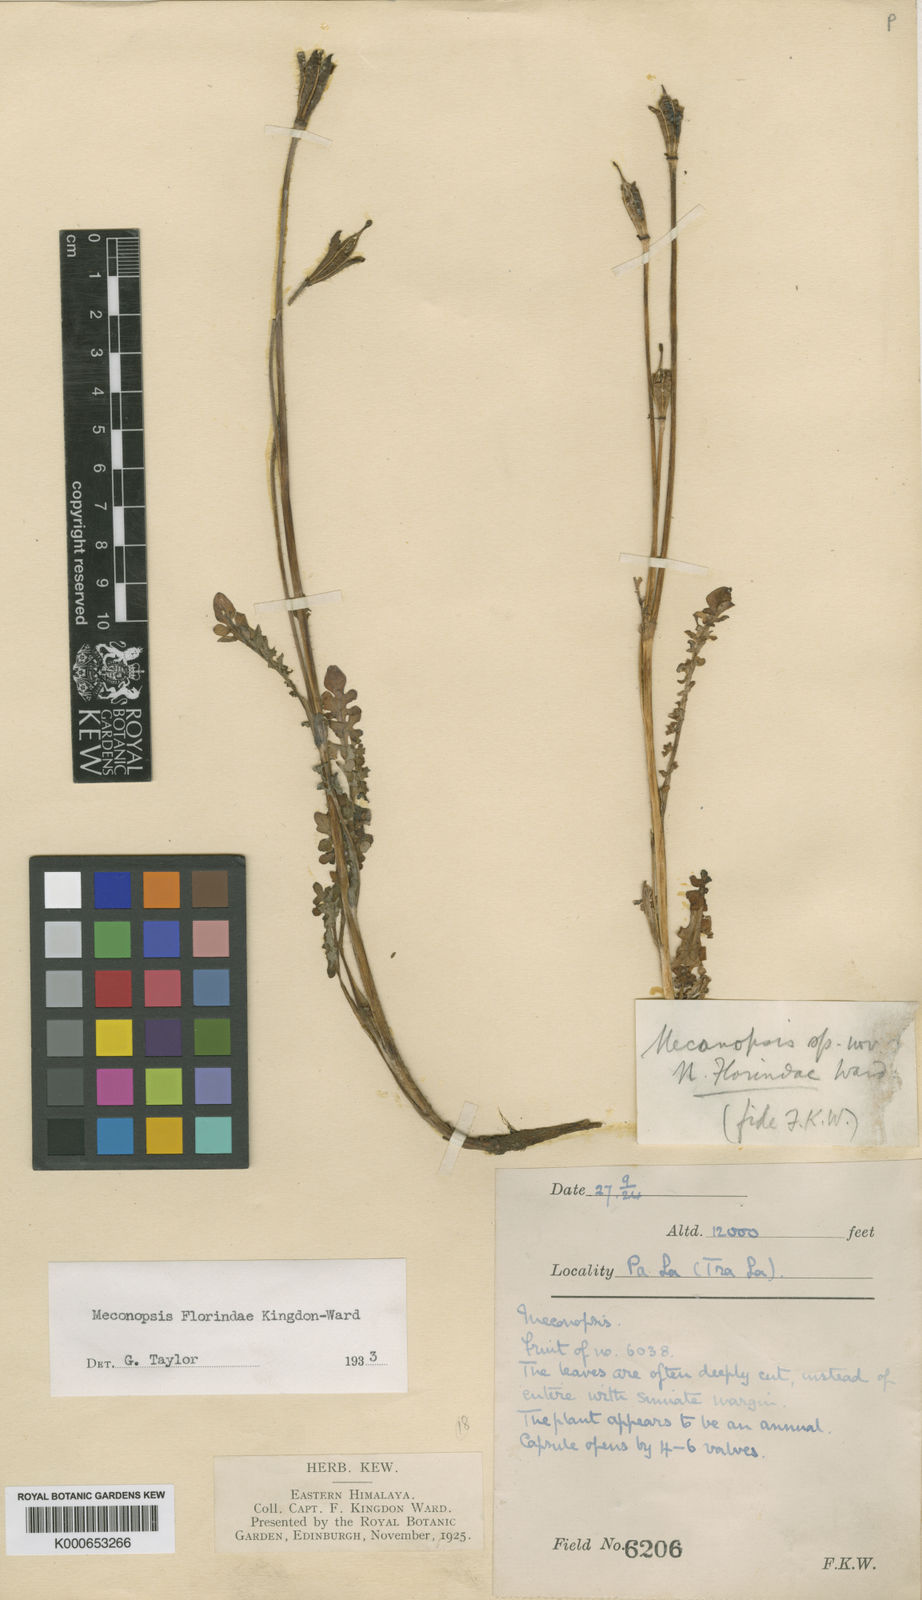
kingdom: Plantae
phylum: Tracheophyta
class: Magnoliopsida
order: Ranunculales
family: Papaveraceae
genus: Meconopsis
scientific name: Meconopsis florindae
